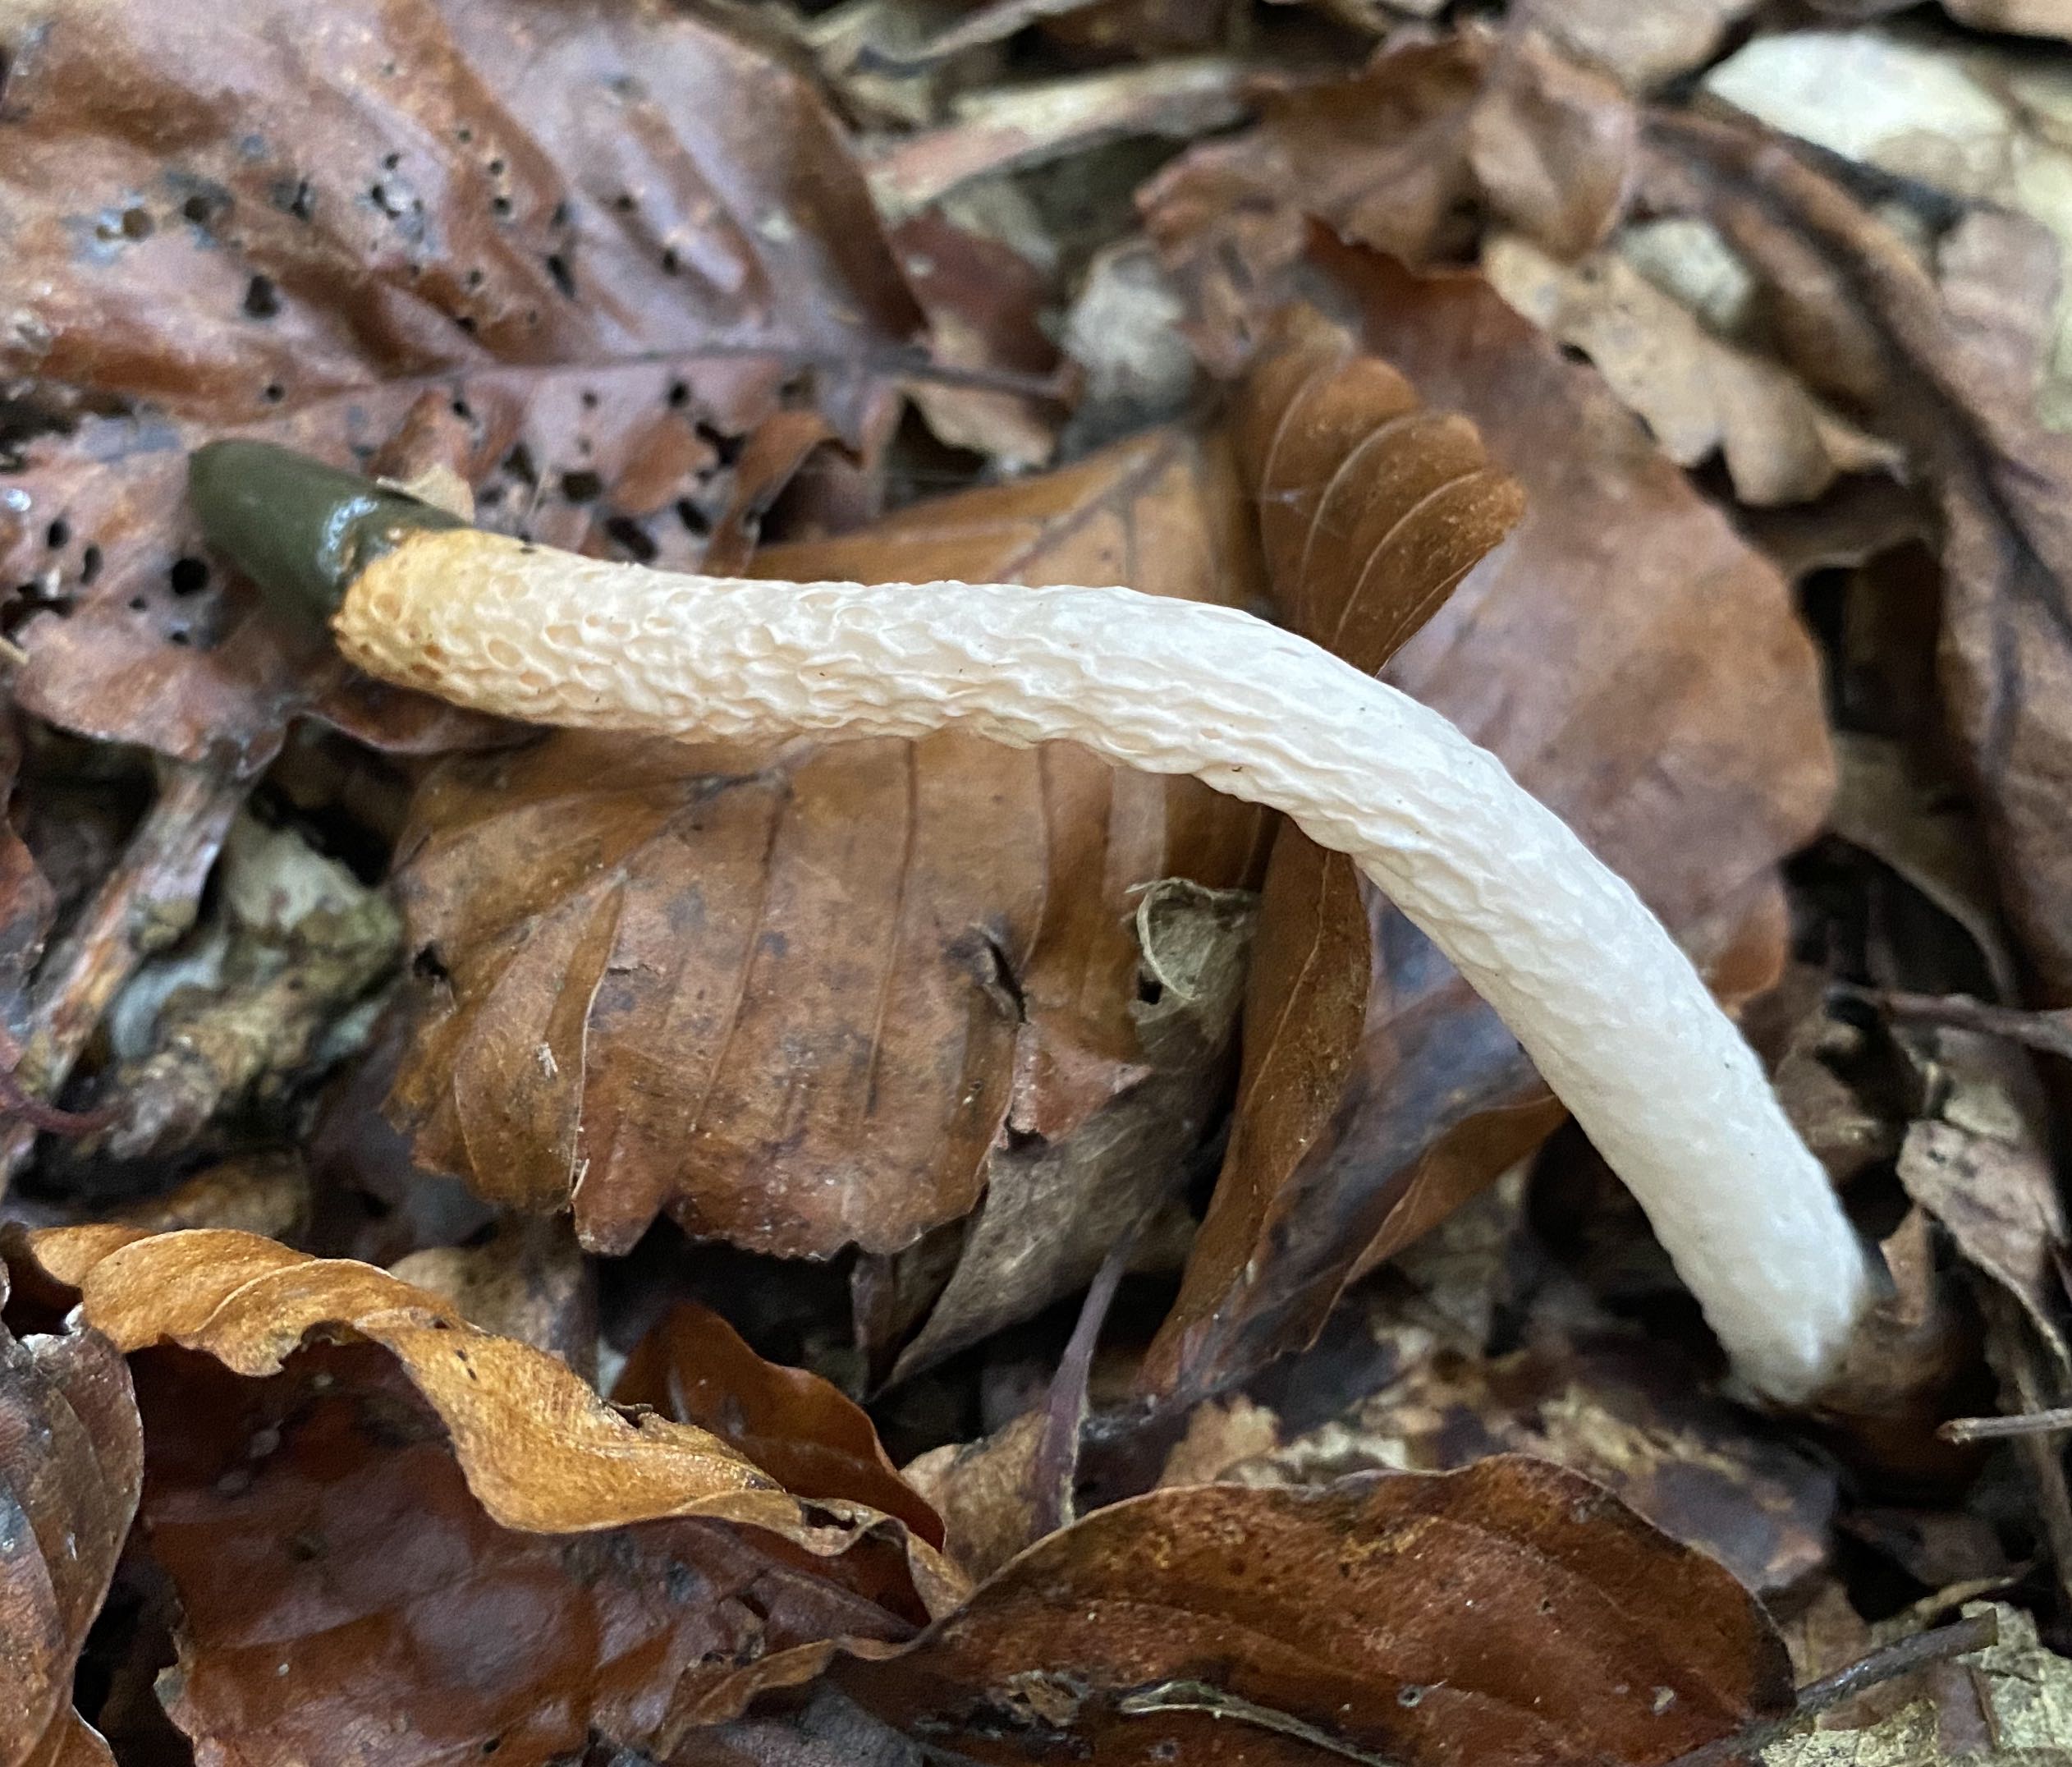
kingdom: Fungi
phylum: Basidiomycota
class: Agaricomycetes
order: Phallales
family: Phallaceae
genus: Mutinus
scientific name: Mutinus caninus
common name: hunde-stinksvamp
